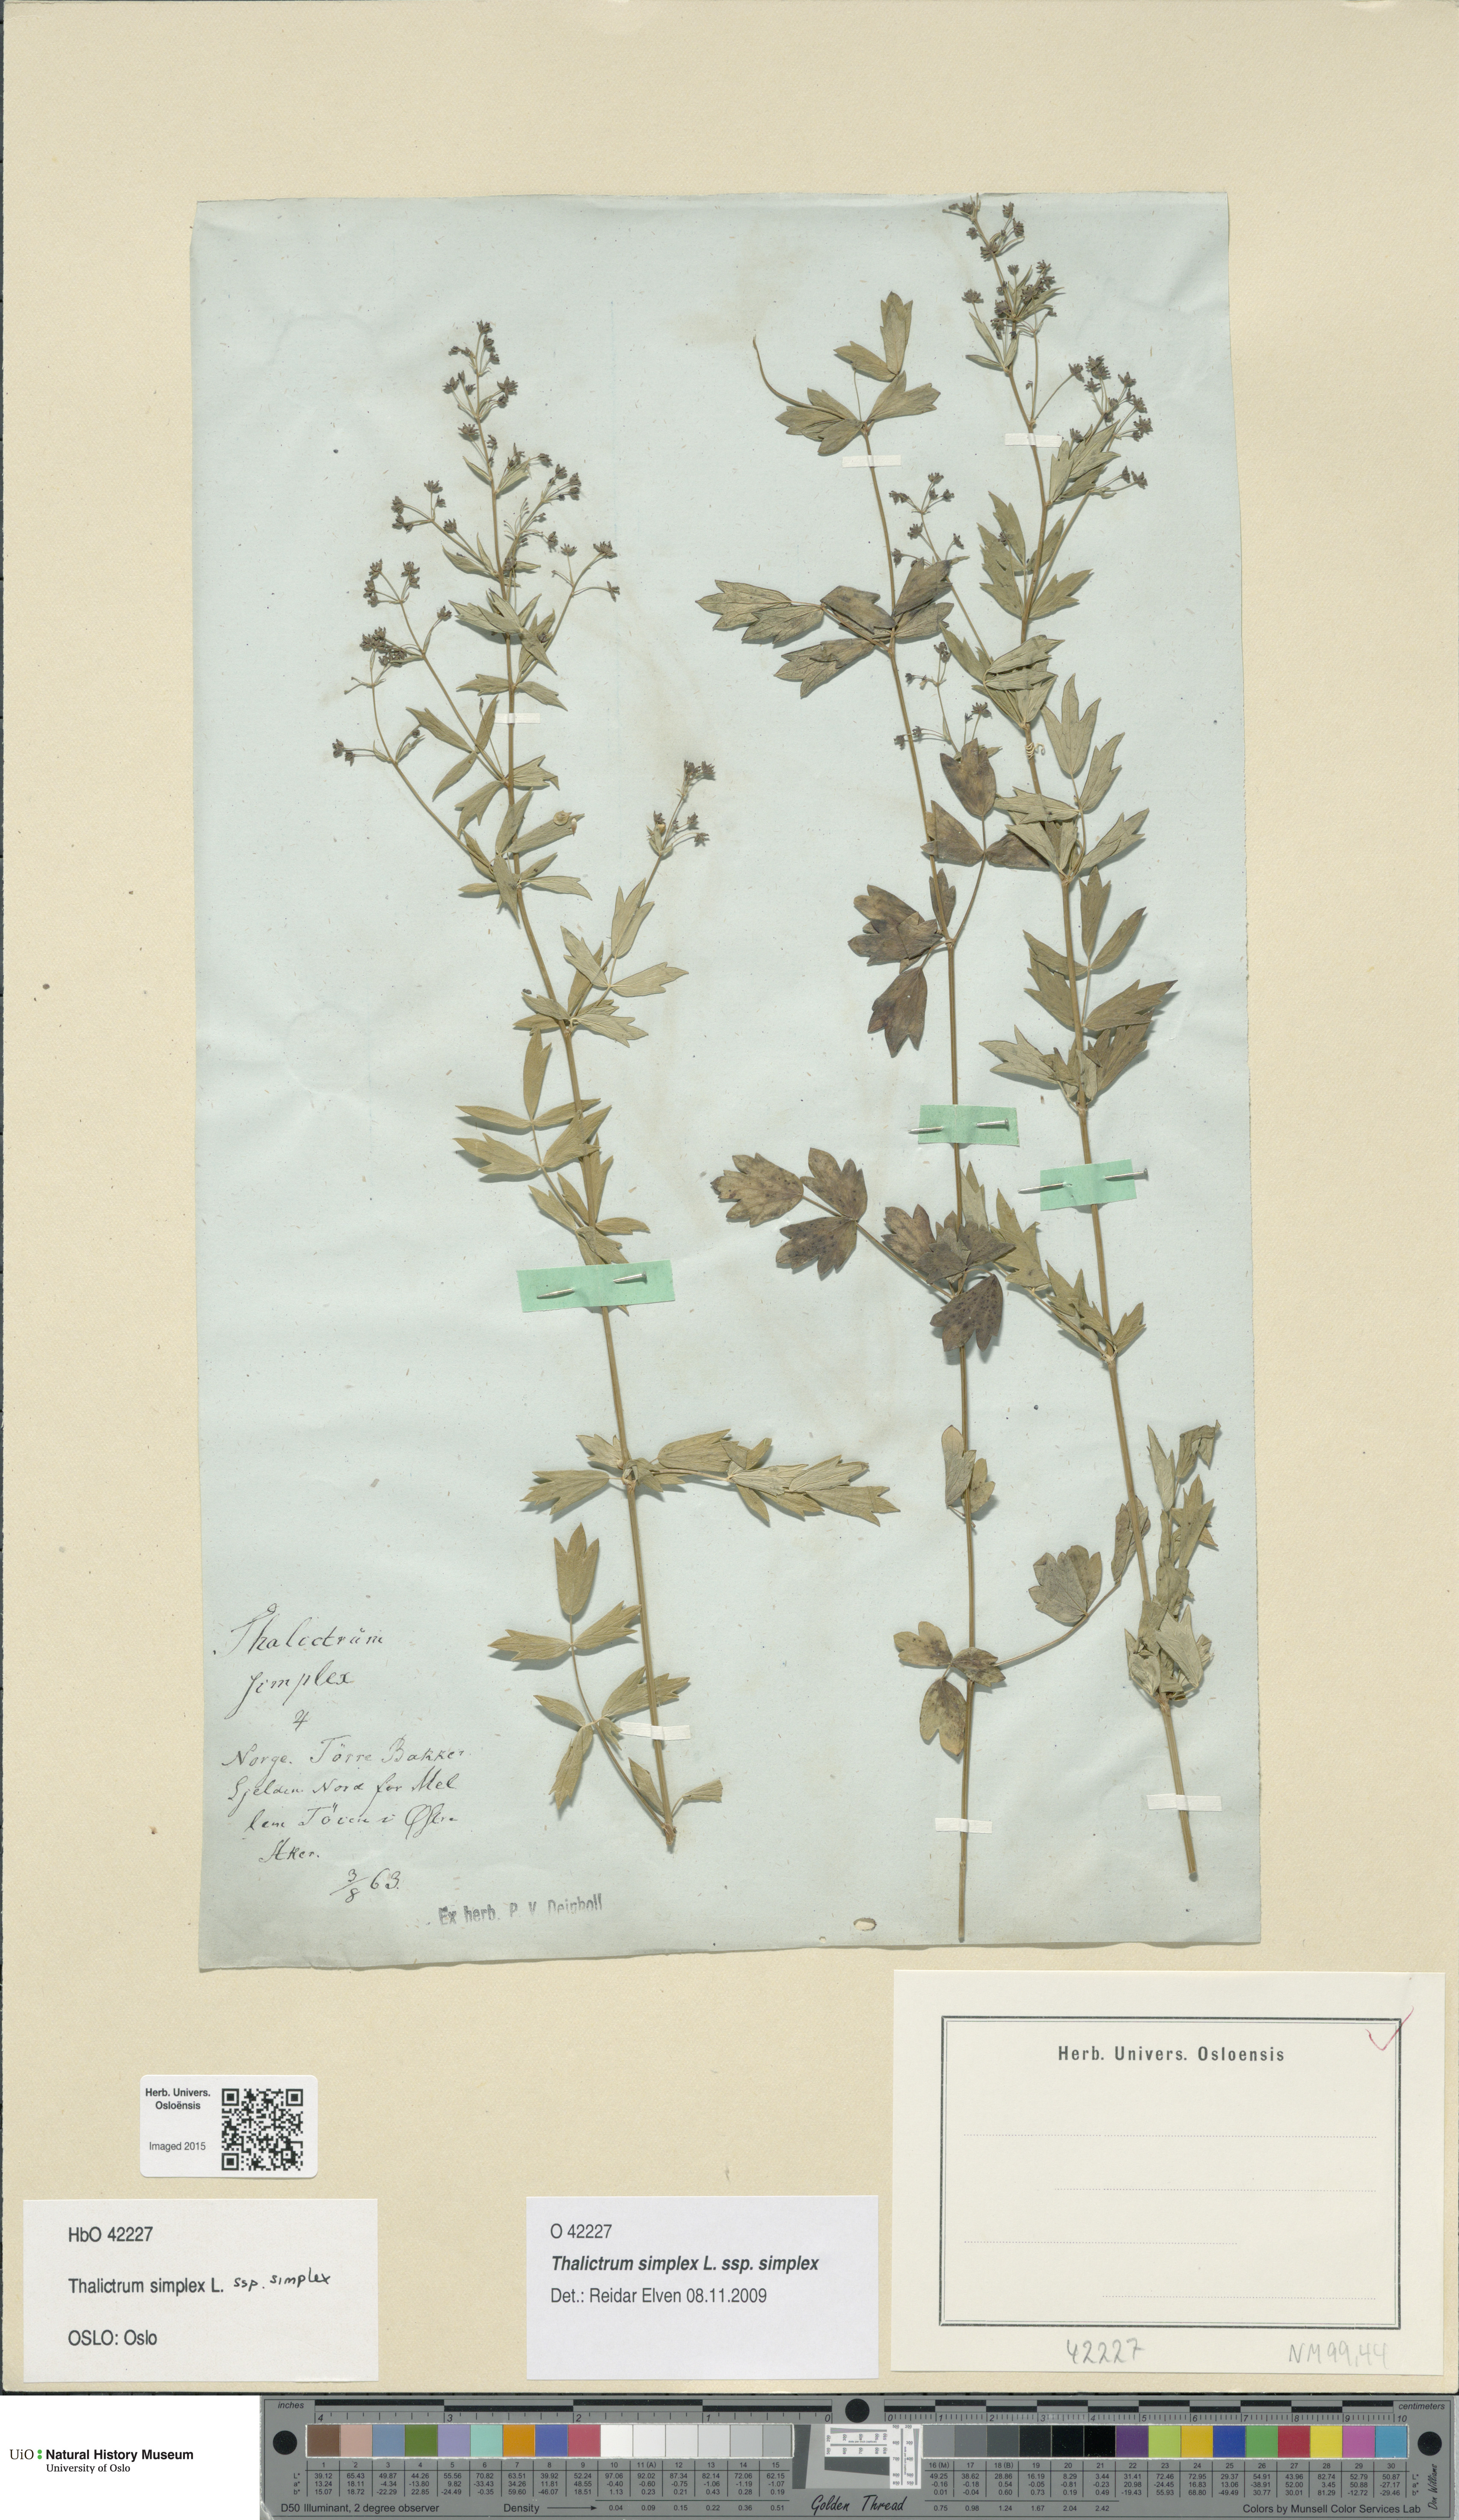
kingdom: Plantae
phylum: Tracheophyta
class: Magnoliopsida
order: Ranunculales
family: Ranunculaceae
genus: Thalictrum
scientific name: Thalictrum simplex
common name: Small meadow-rue
